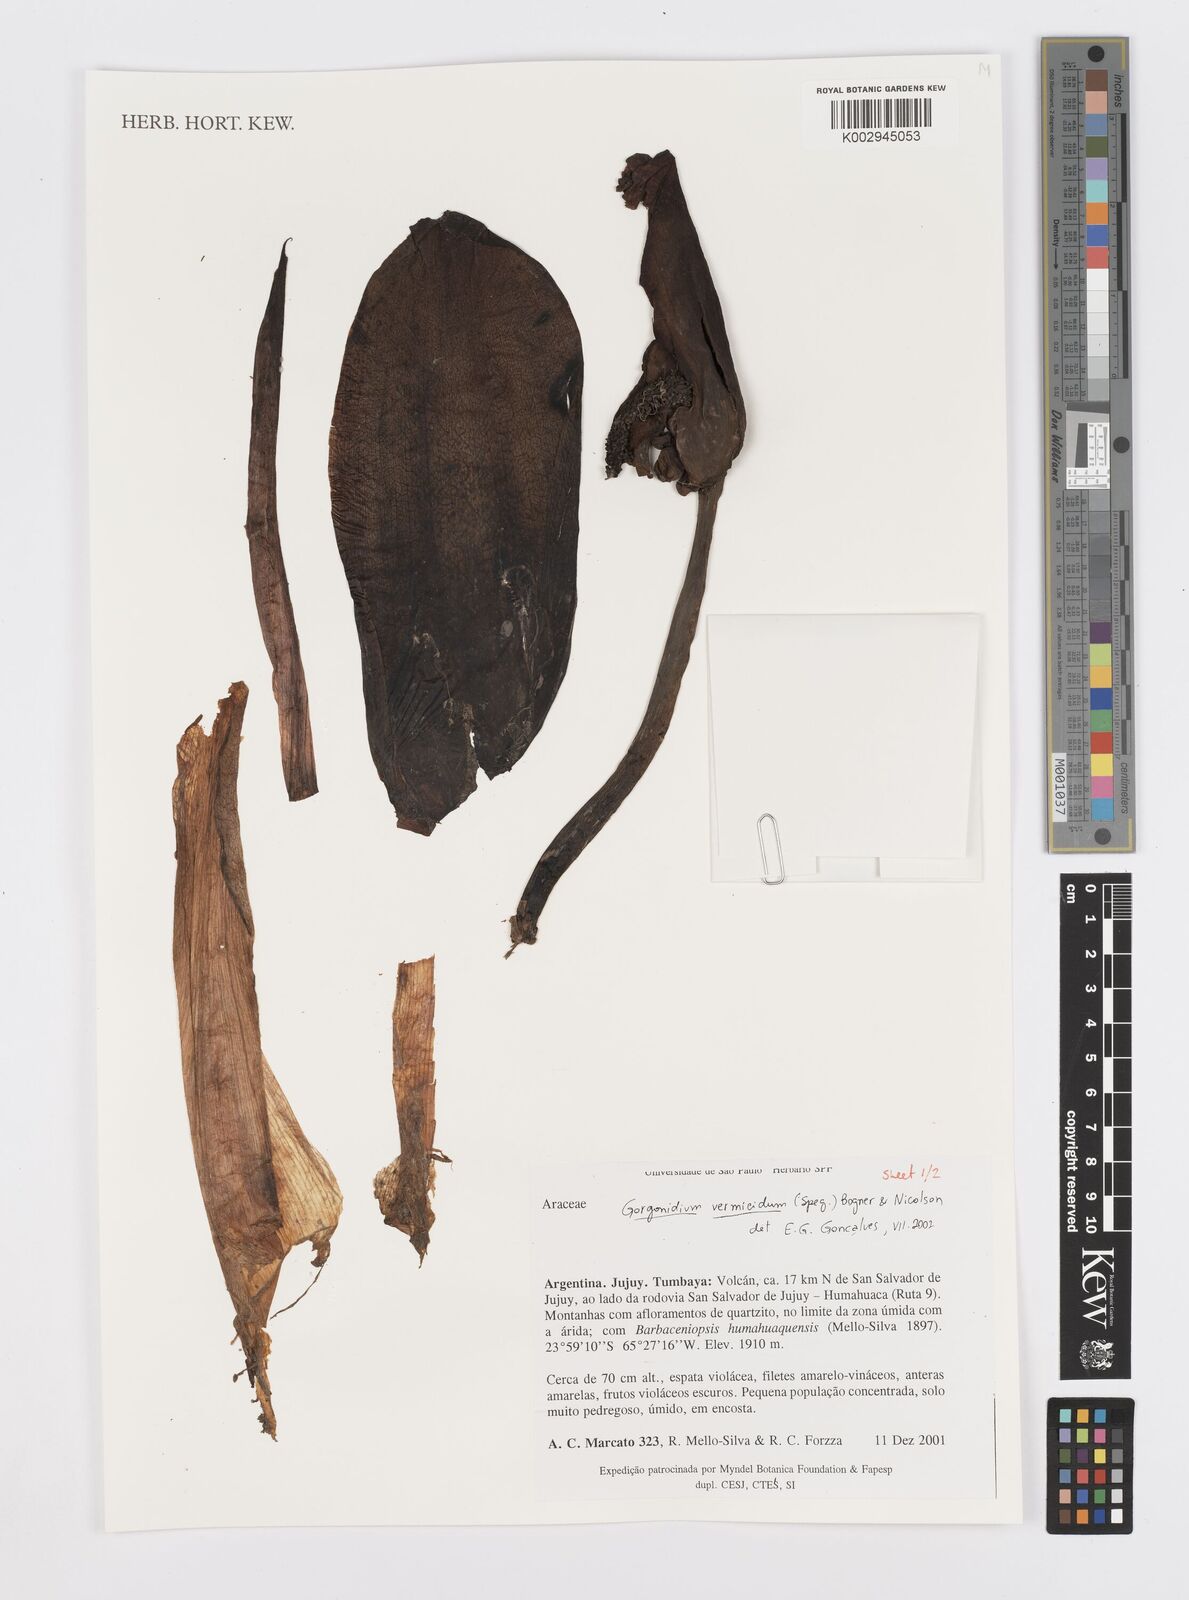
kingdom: Plantae
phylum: Tracheophyta
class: Liliopsida
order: Alismatales
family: Araceae
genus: Gorgonidium
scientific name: Gorgonidium vermicidum
